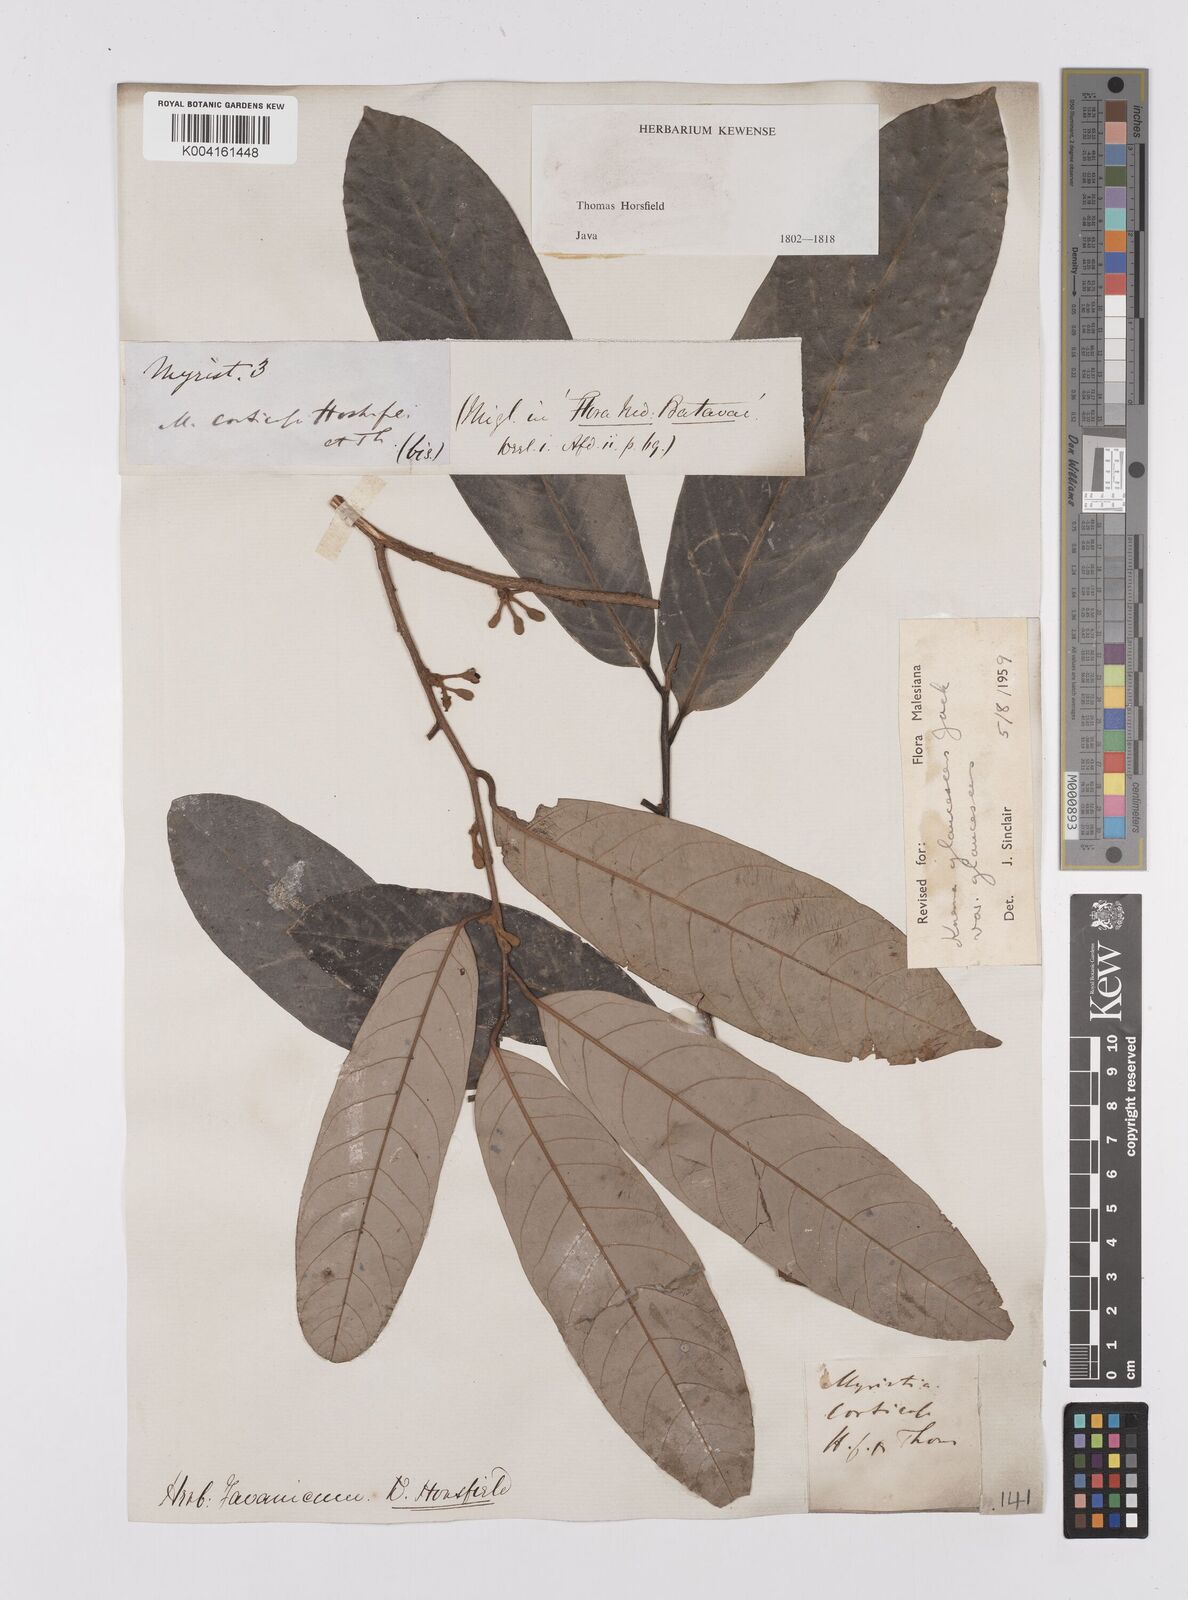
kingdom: Plantae
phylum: Tracheophyta
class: Magnoliopsida
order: Magnoliales
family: Myristicaceae
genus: Knema
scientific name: Knema
